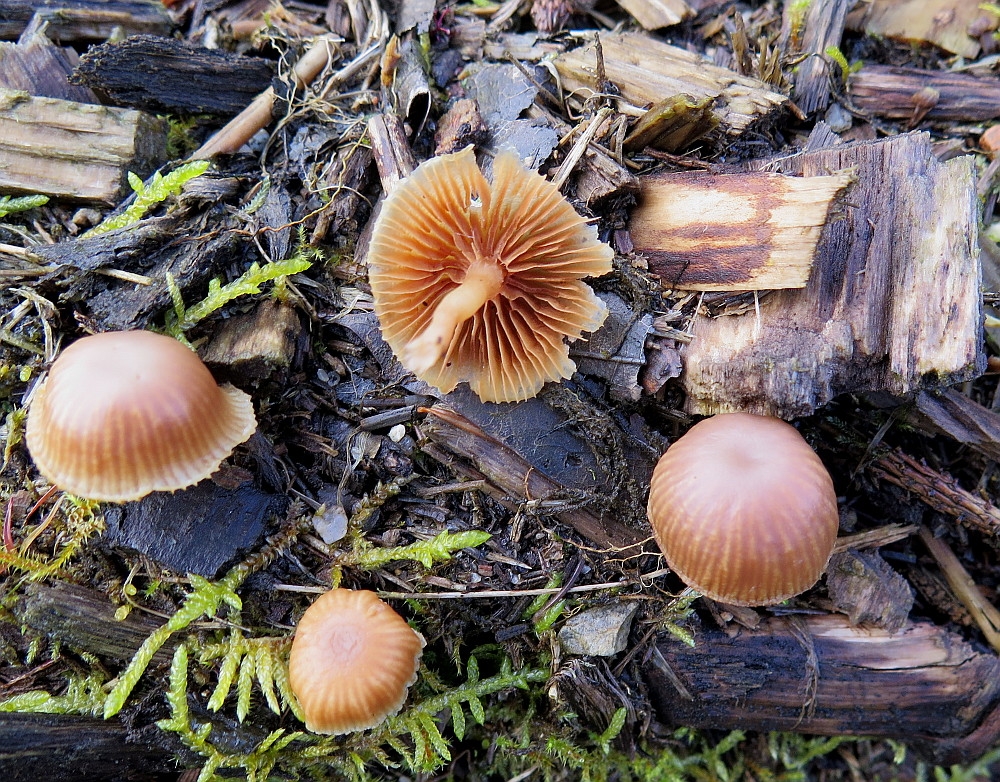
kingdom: Fungi
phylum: Basidiomycota
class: Agaricomycetes
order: Agaricales
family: Tubariaceae
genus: Tubaria
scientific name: Tubaria furfuracea
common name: kliddet fnughat
